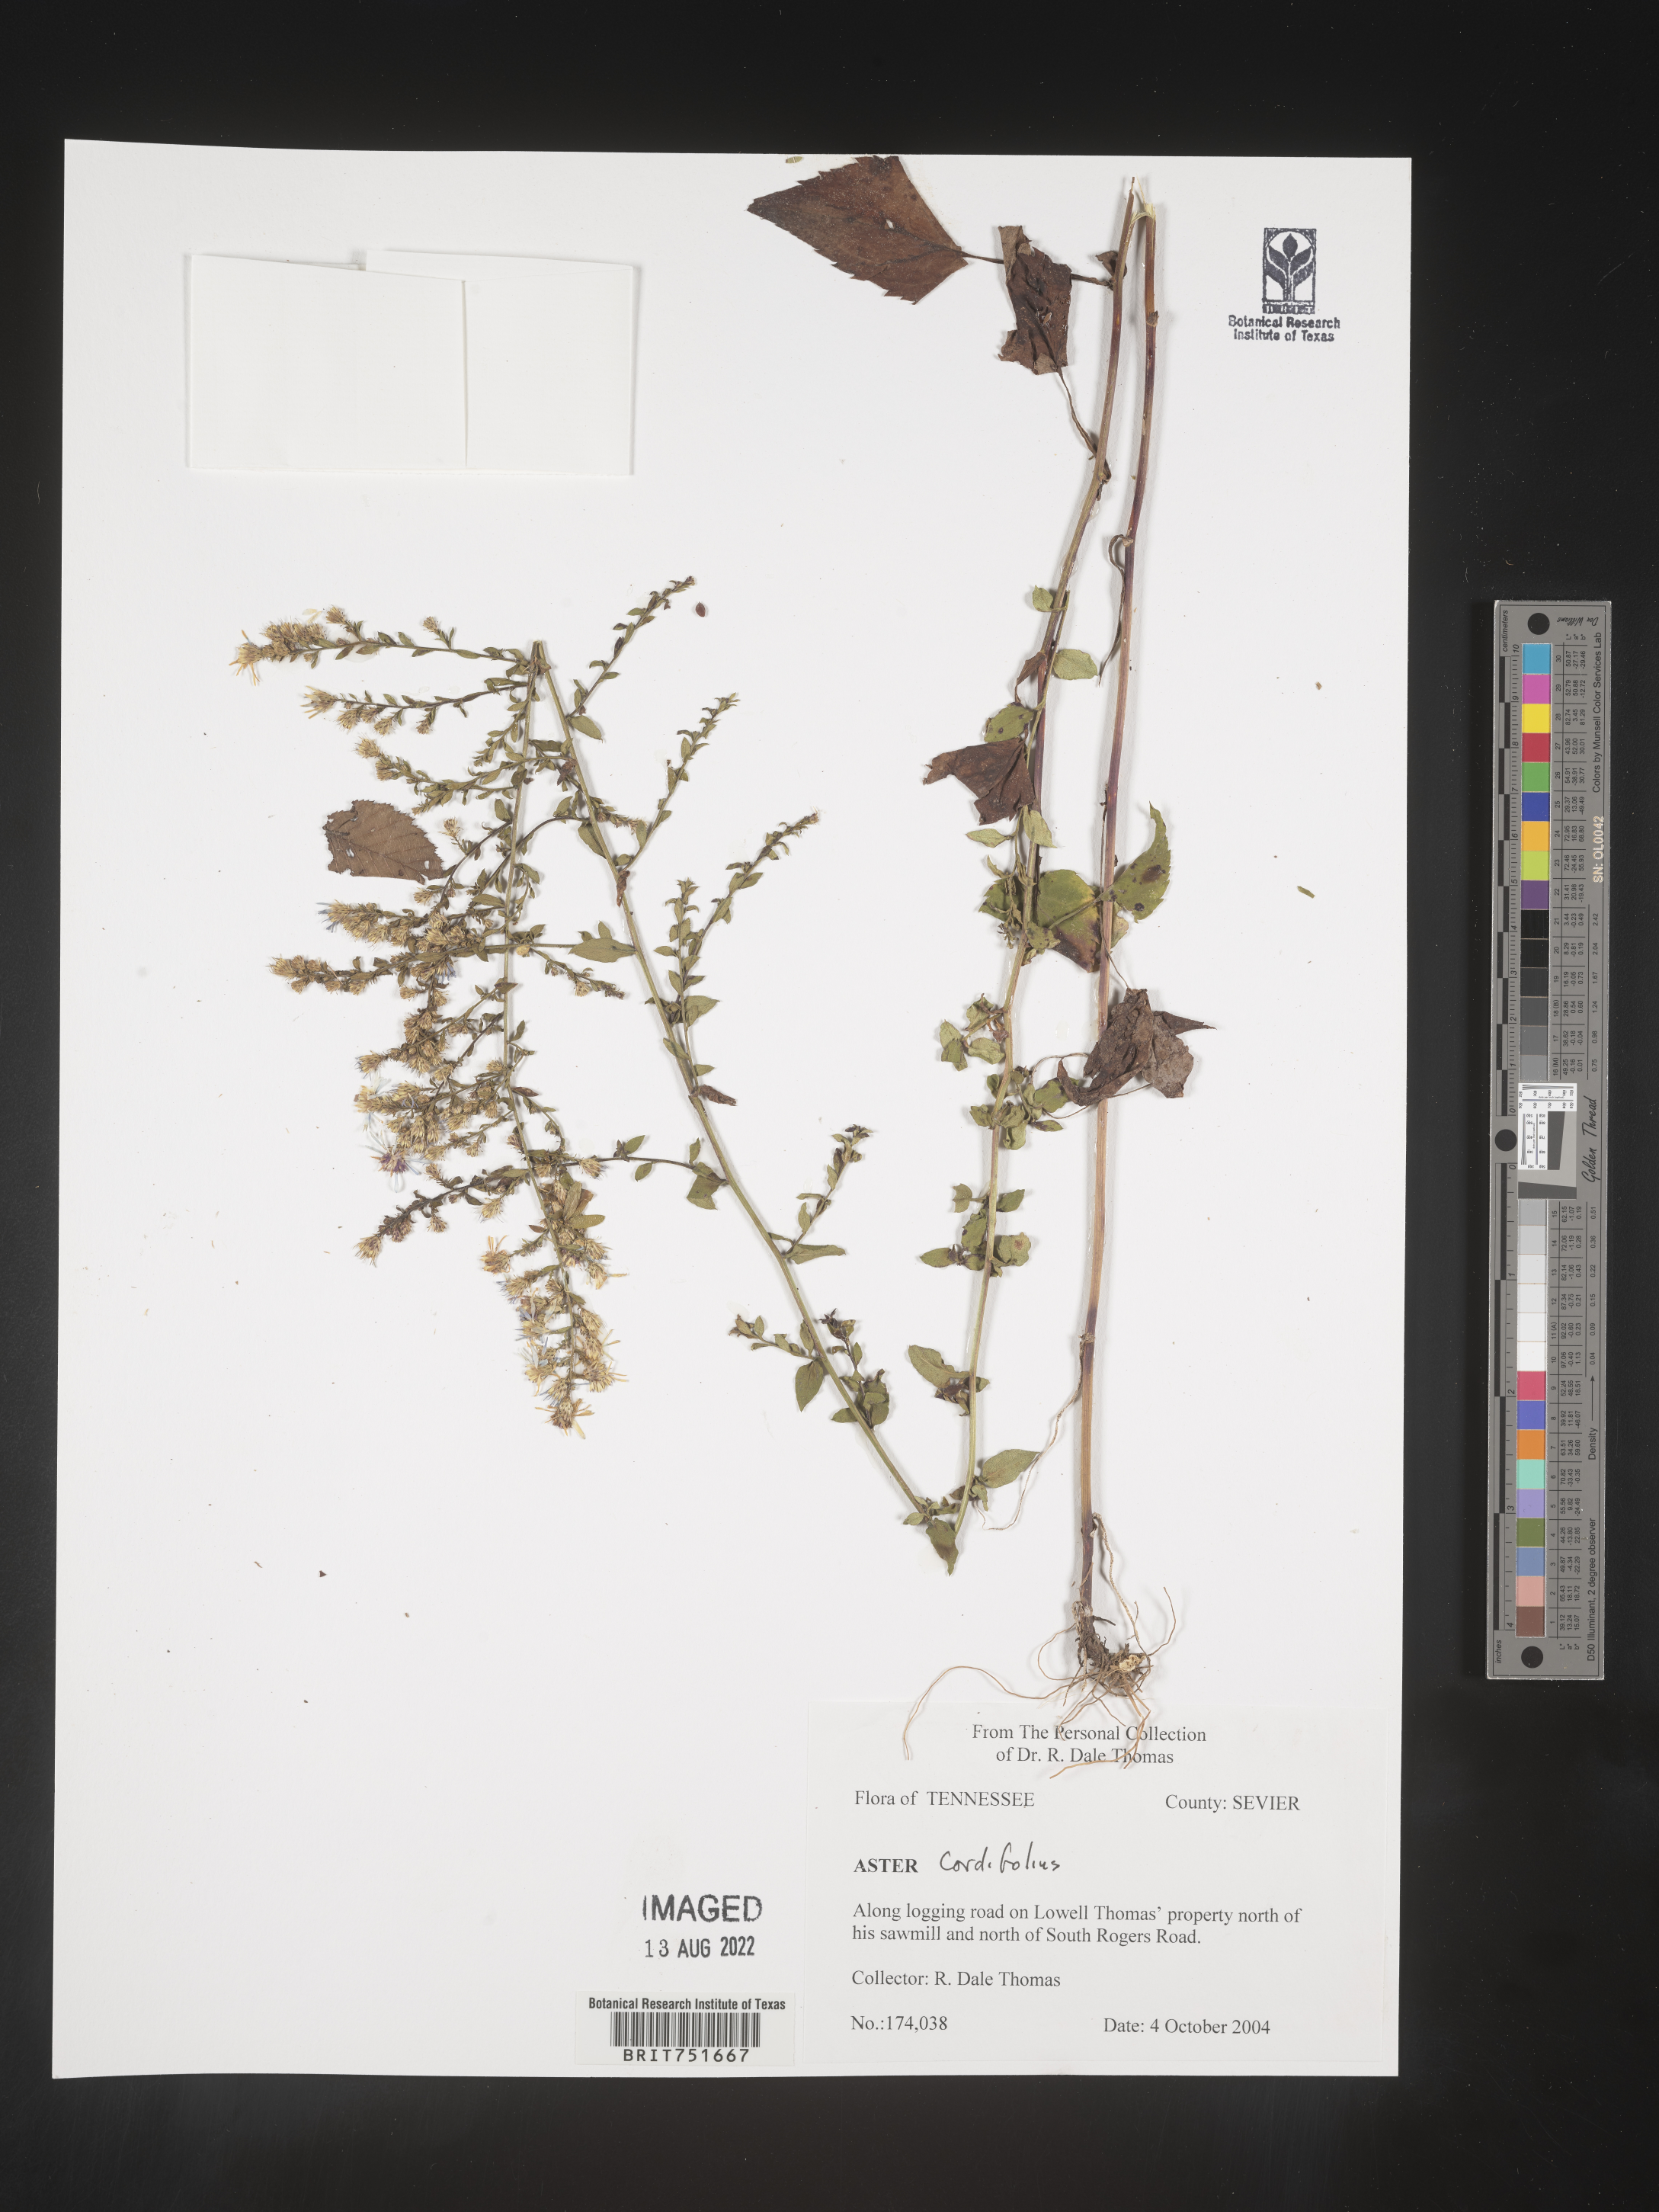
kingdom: Plantae
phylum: Tracheophyta
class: Magnoliopsida
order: Asterales
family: Asteraceae
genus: Symphyotrichum
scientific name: Symphyotrichum cordifolium
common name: Beeweed
